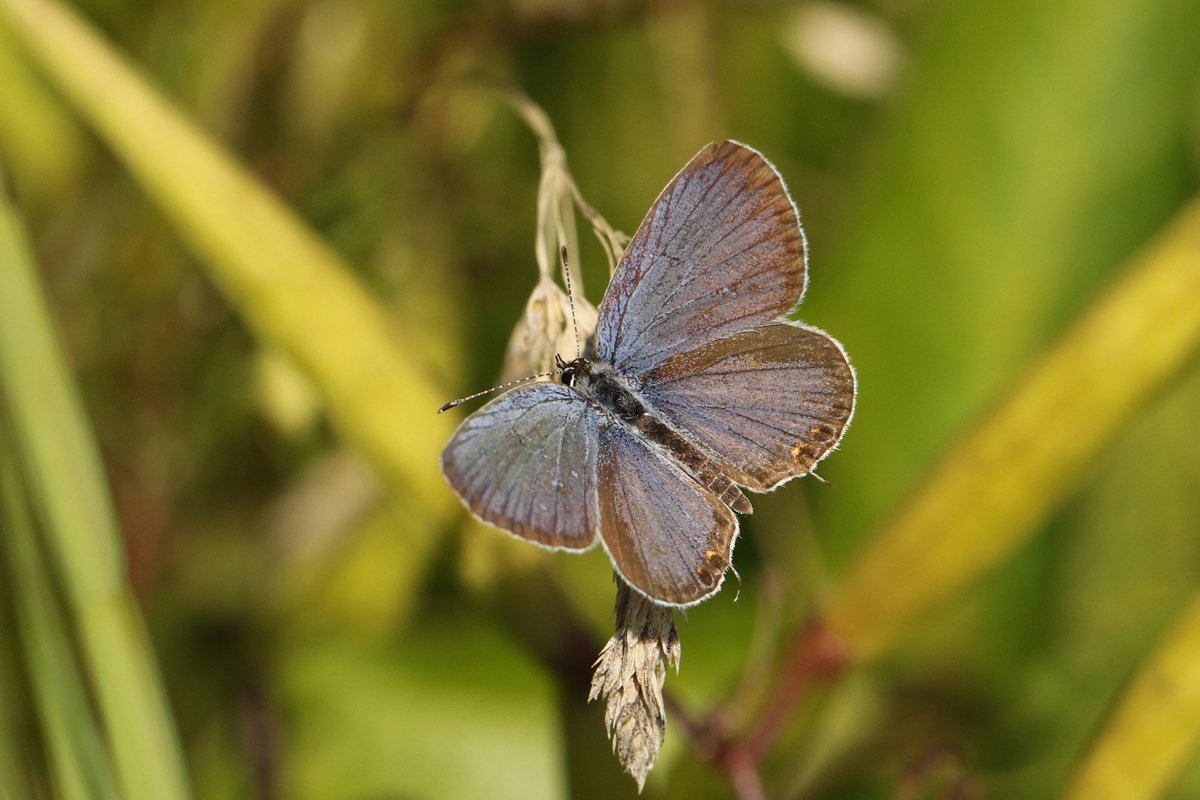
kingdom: Animalia
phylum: Arthropoda
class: Insecta
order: Lepidoptera
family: Lycaenidae
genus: Elkalyce
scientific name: Elkalyce comyntas
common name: Eastern Tailed-Blue
